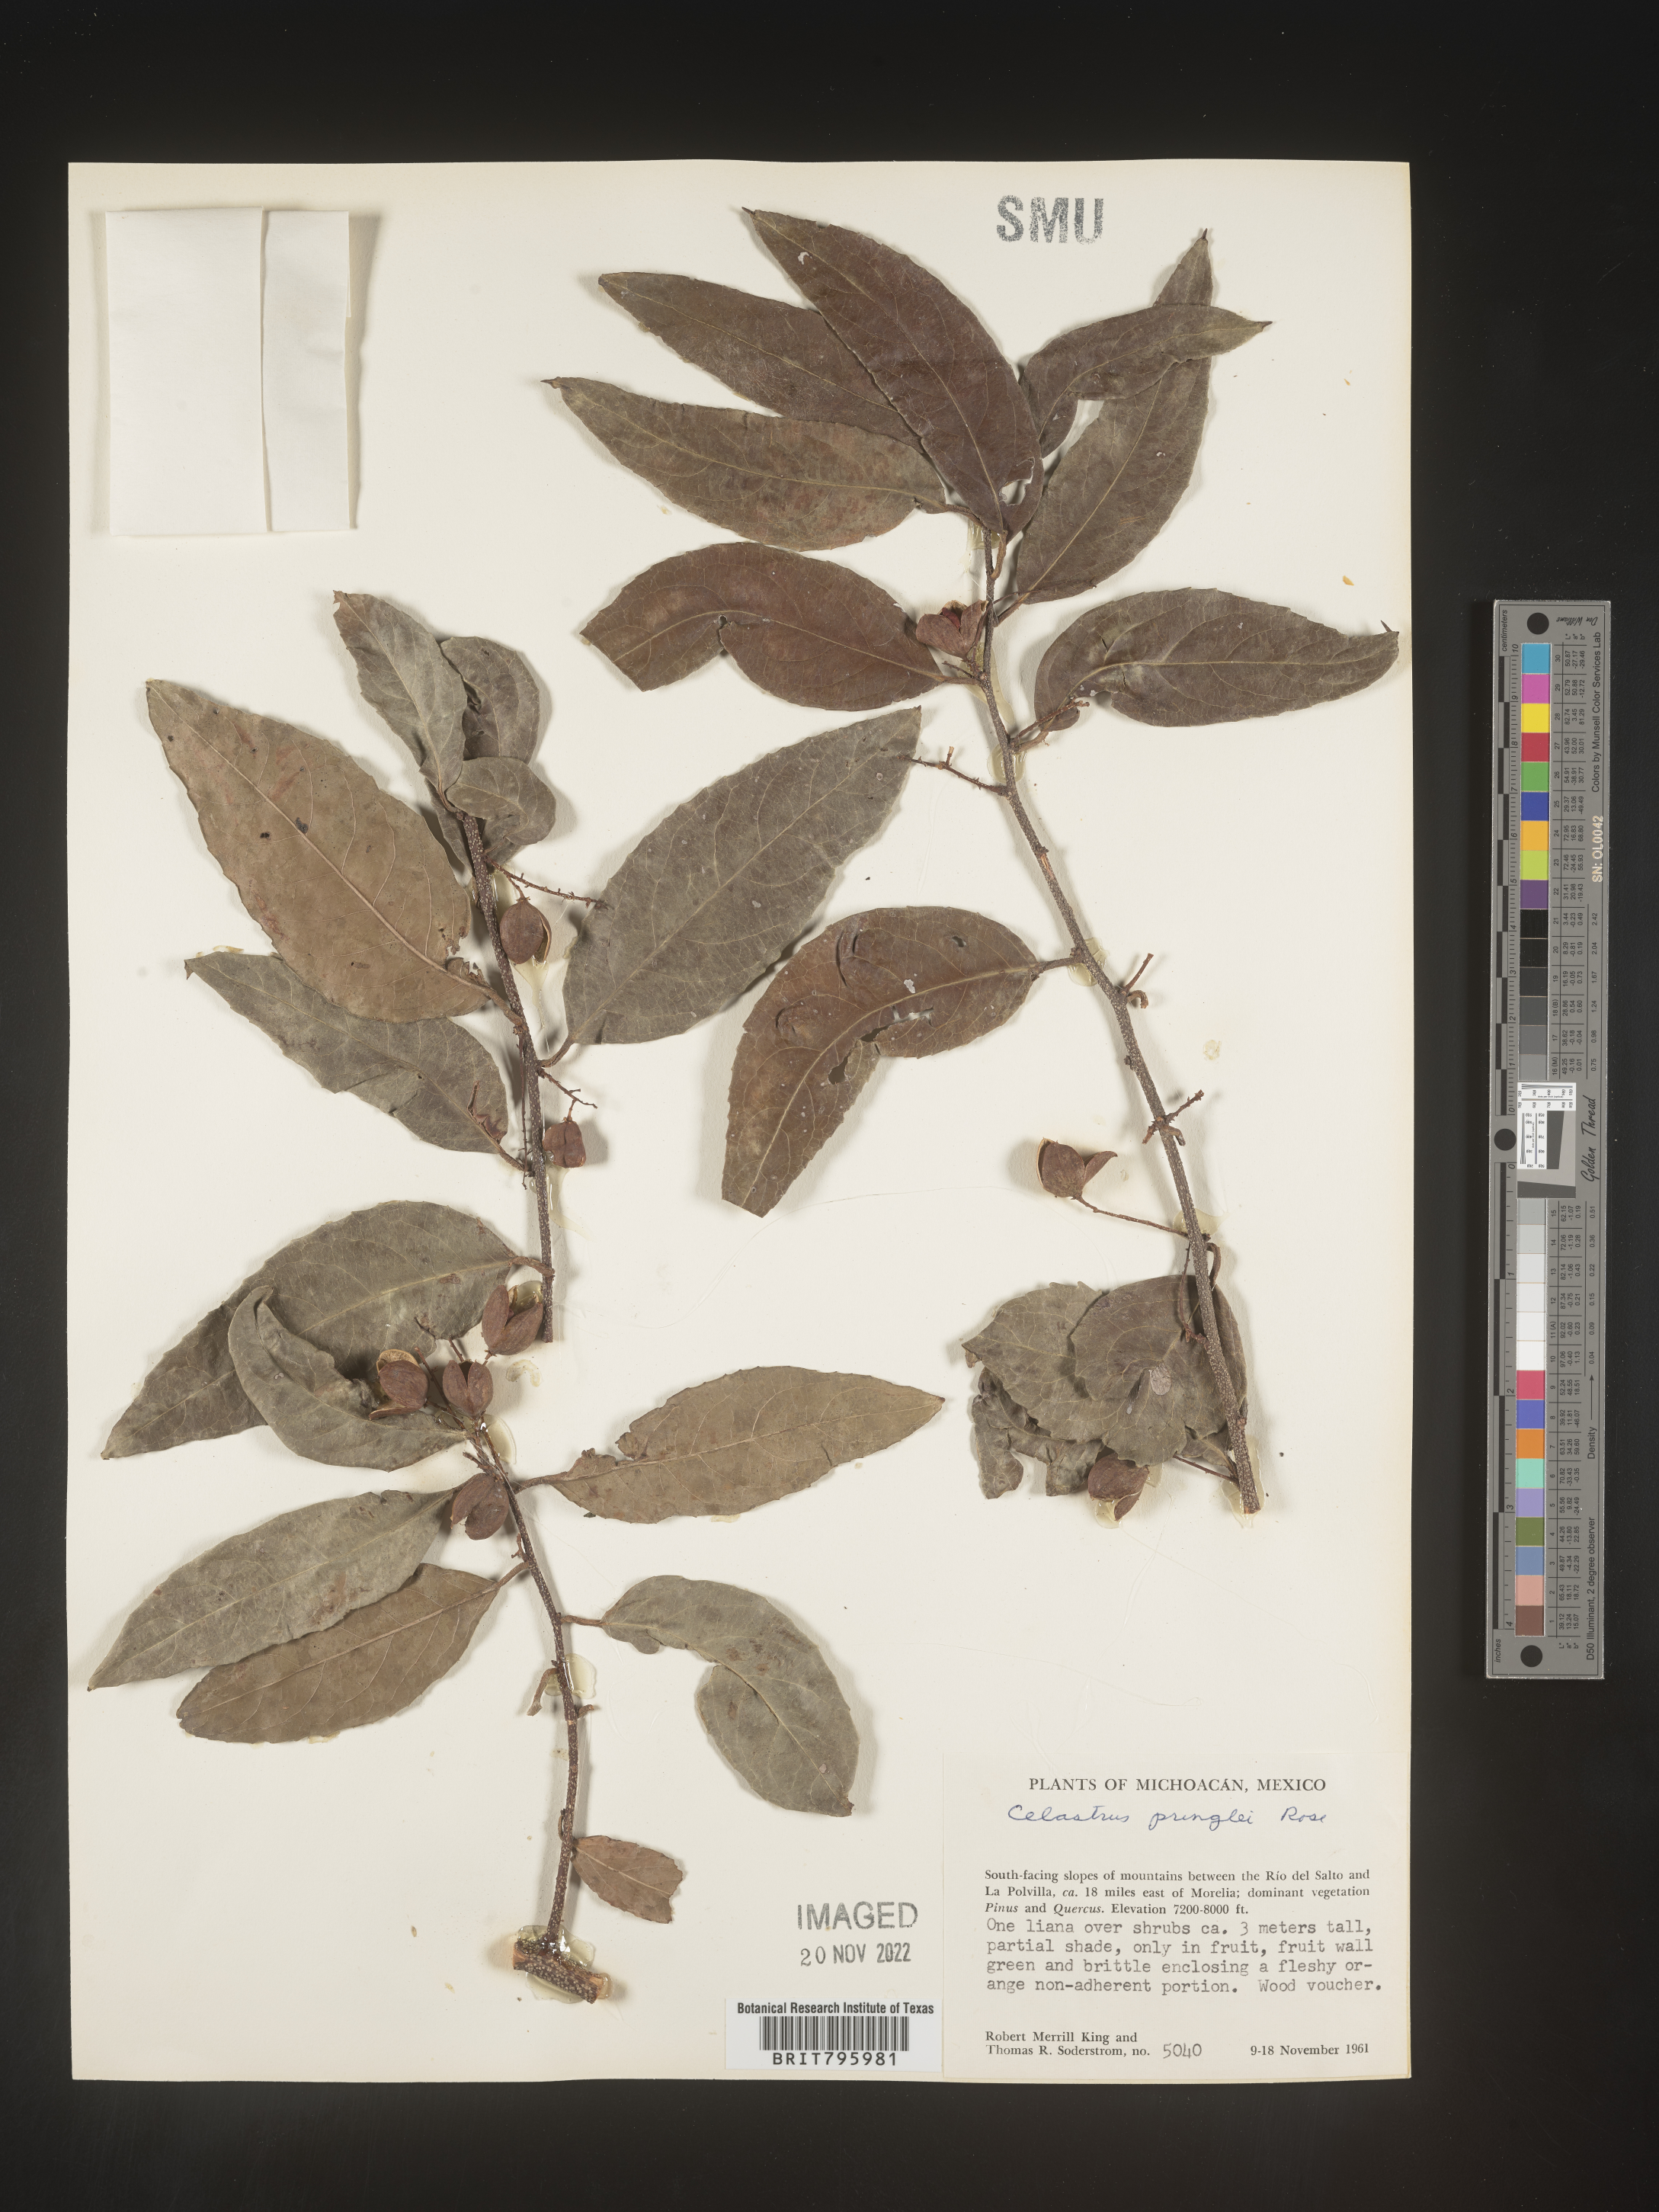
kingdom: Plantae
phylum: Tracheophyta
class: Magnoliopsida
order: Celastrales
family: Celastraceae
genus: Celastrus
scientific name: Celastrus
